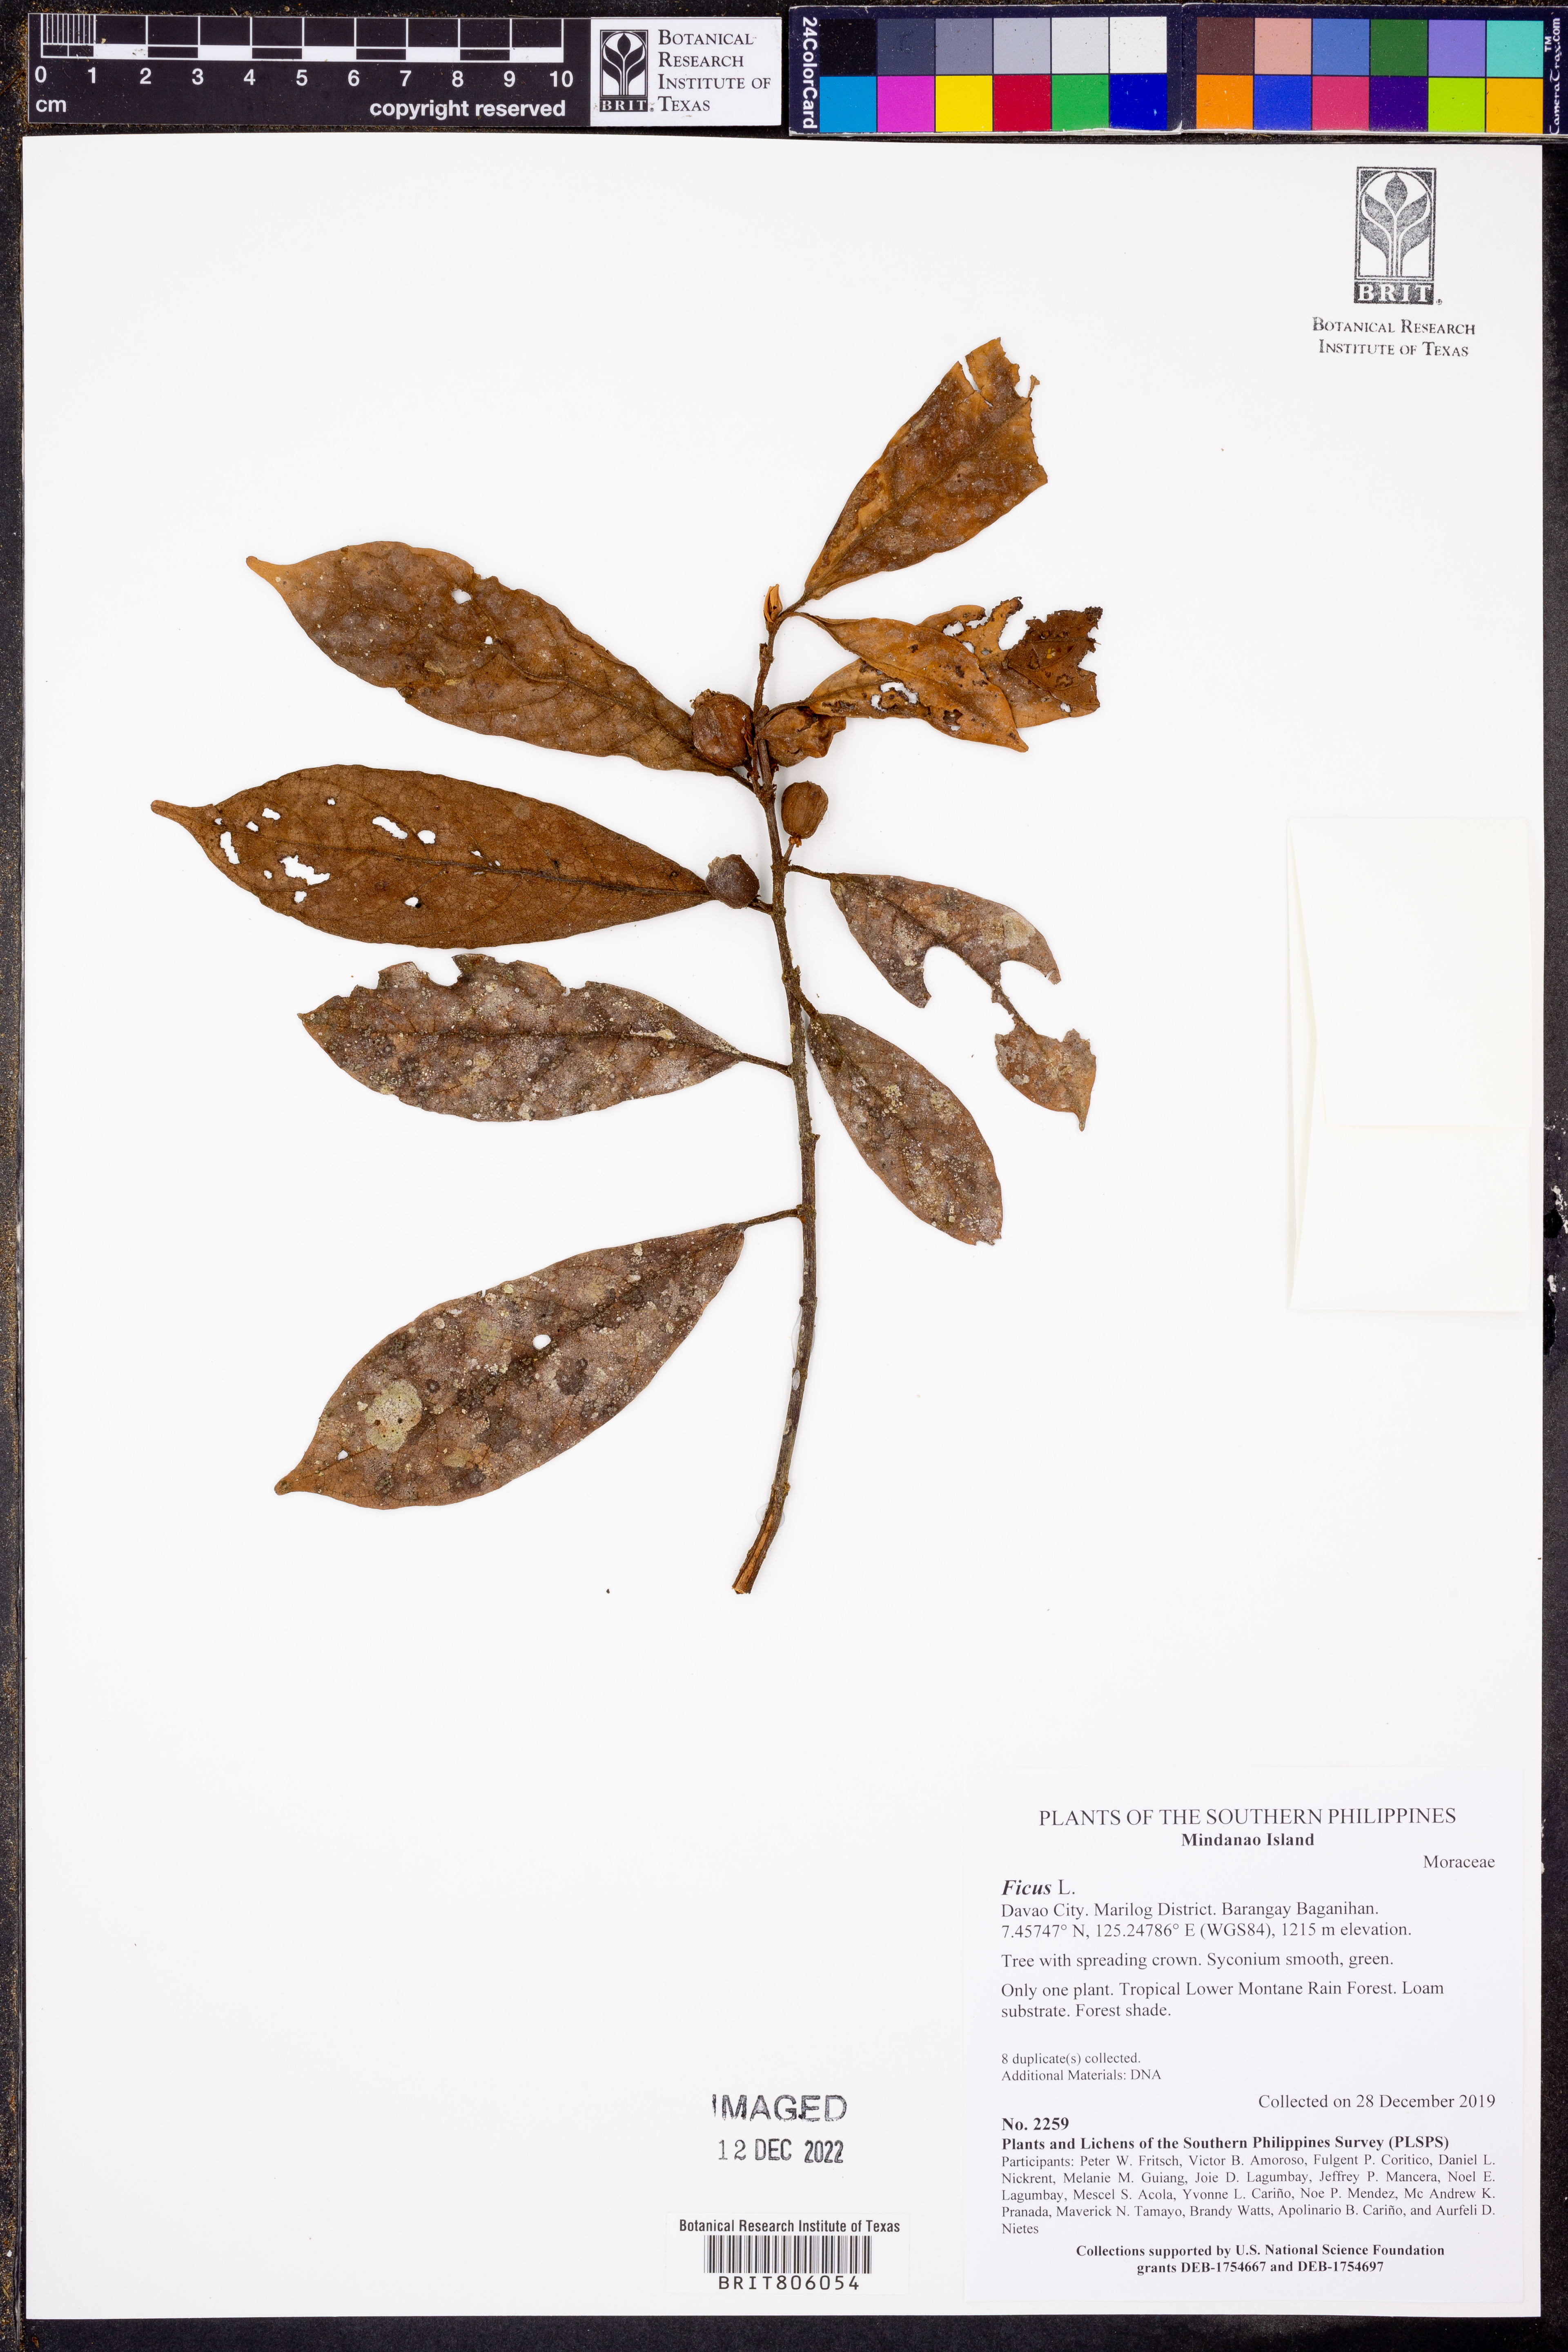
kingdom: Plantae
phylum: Tracheophyta
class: Magnoliopsida
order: Rosales
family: Moraceae
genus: Ficus
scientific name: Ficus
